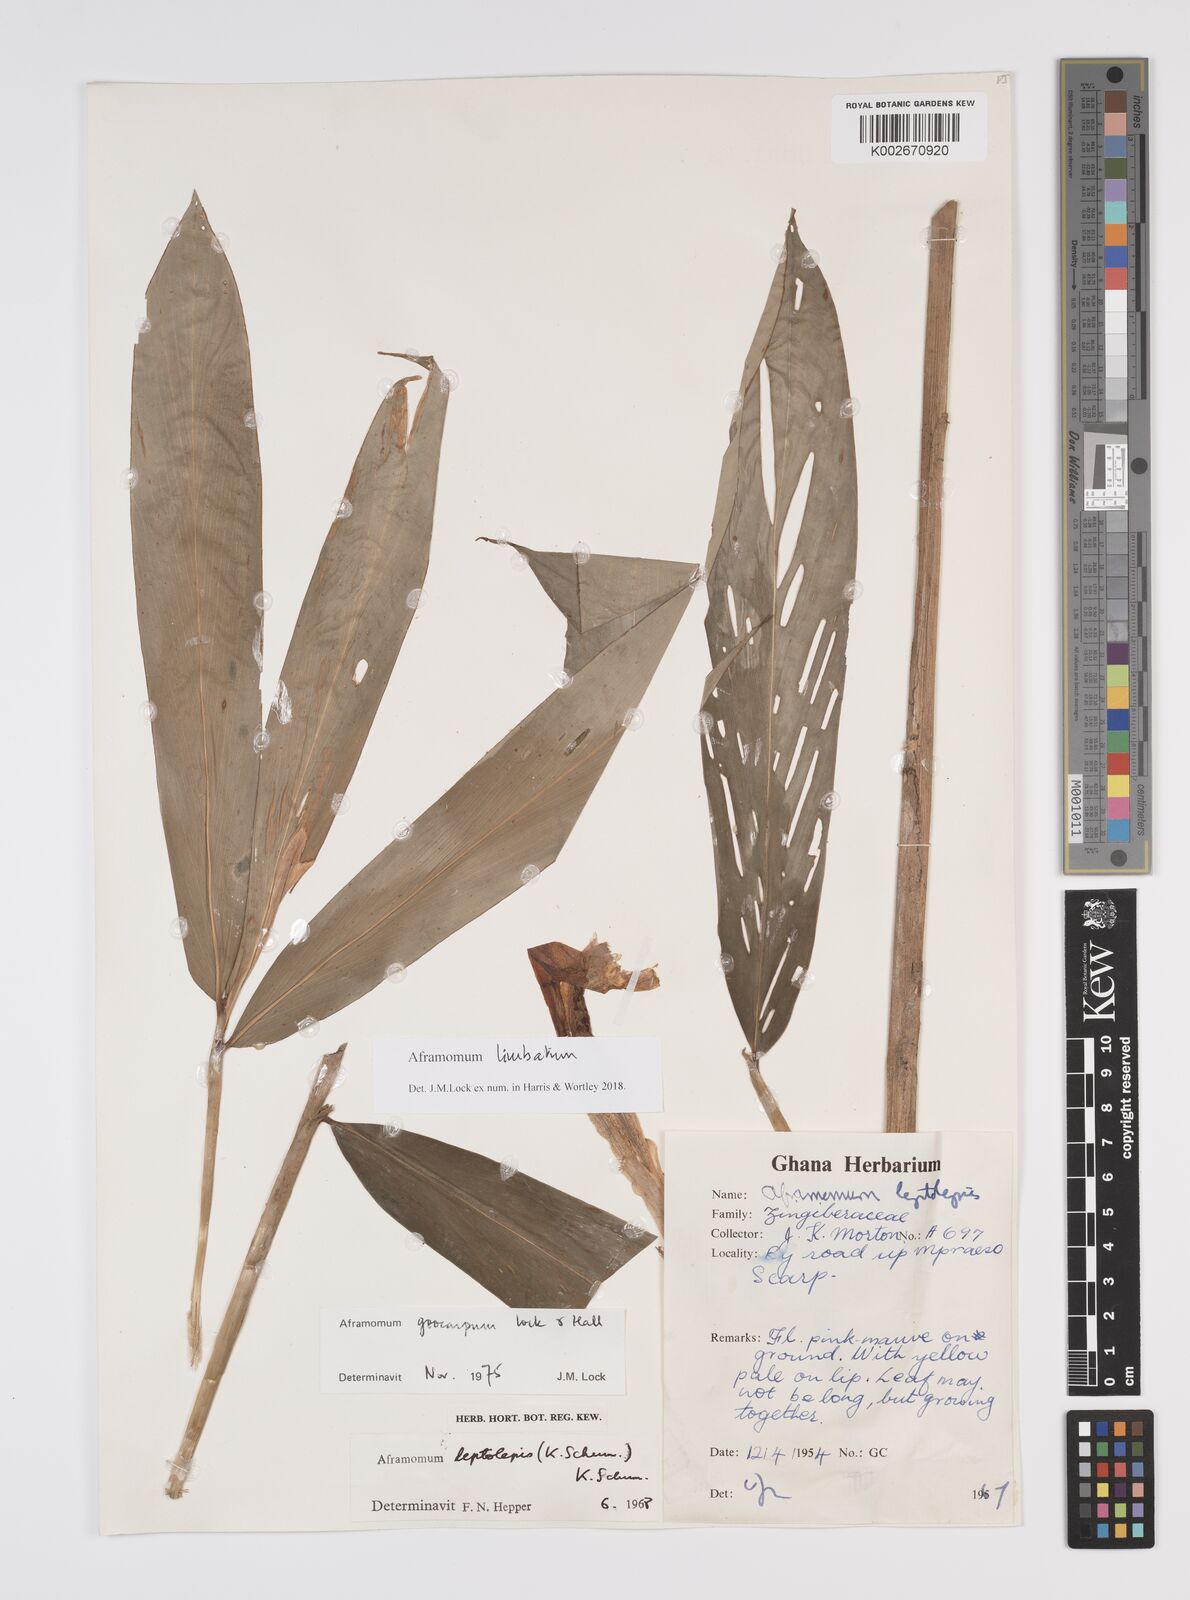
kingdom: Plantae
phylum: Tracheophyta
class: Liliopsida
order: Zingiberales
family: Zingiberaceae
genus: Aframomum
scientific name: Aframomum limbatum
